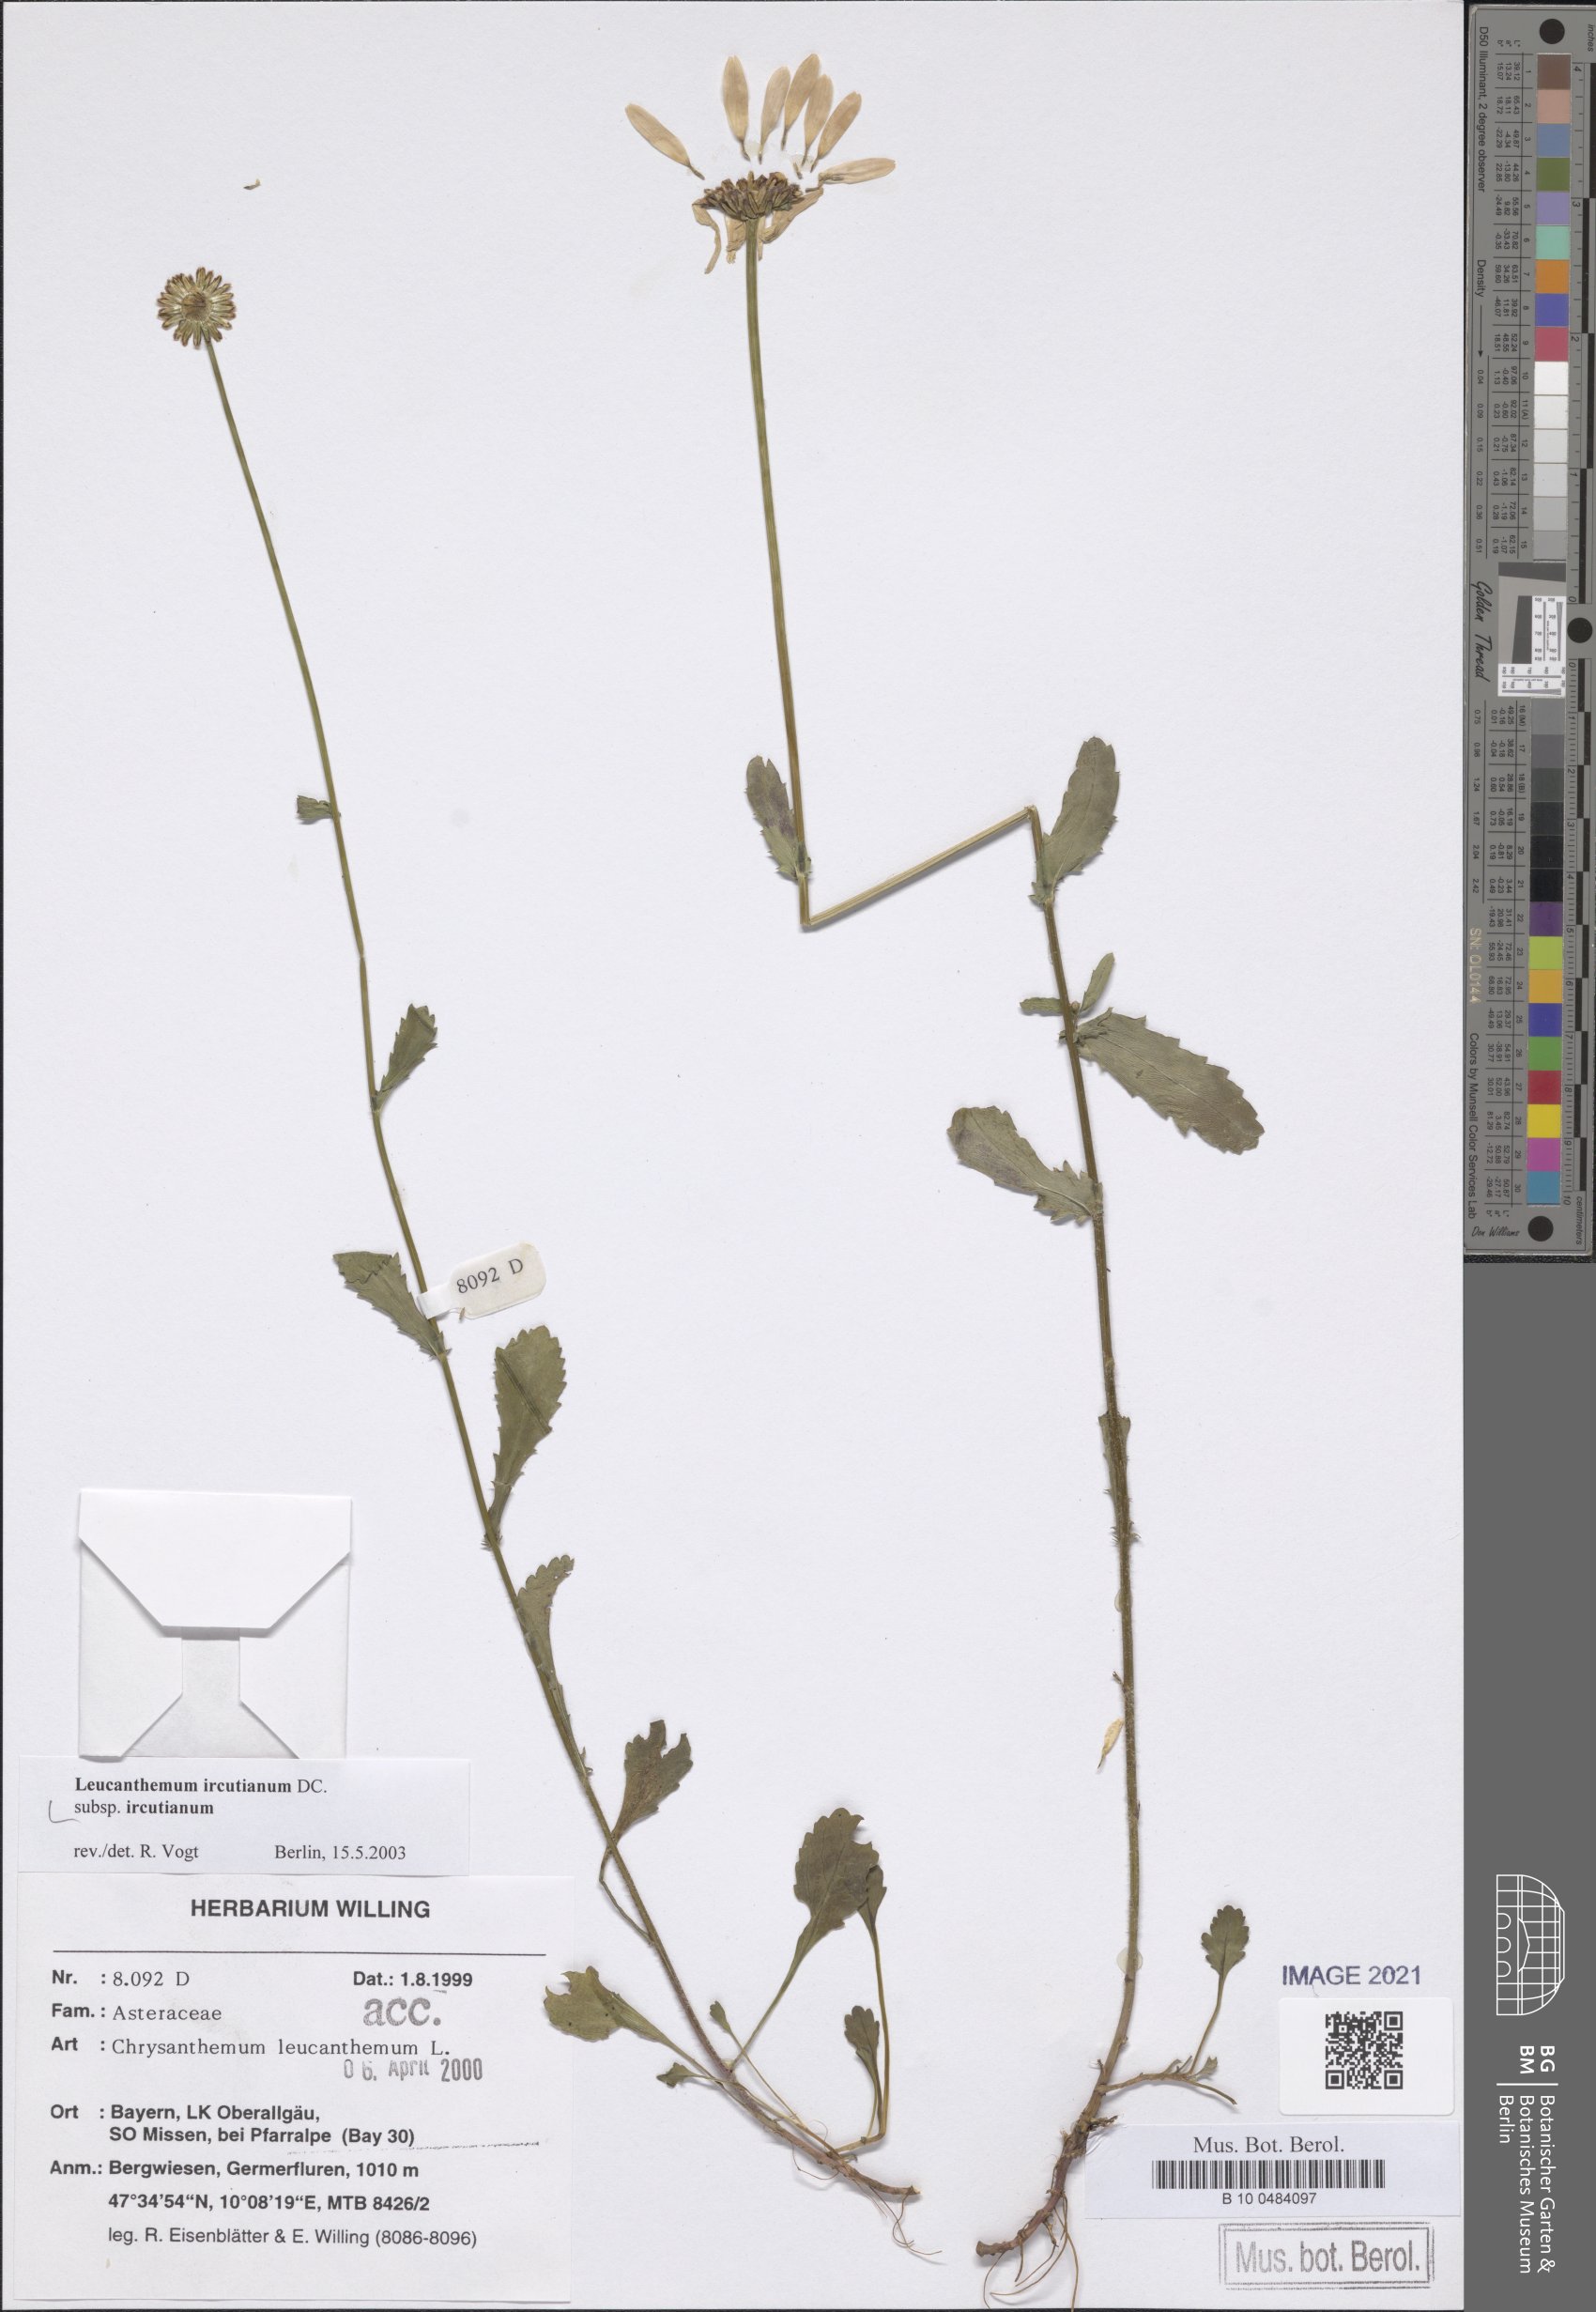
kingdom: Plantae
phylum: Tracheophyta
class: Magnoliopsida
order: Asterales
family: Asteraceae
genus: Leucanthemum
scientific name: Leucanthemum ircutianum
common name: Daisy
